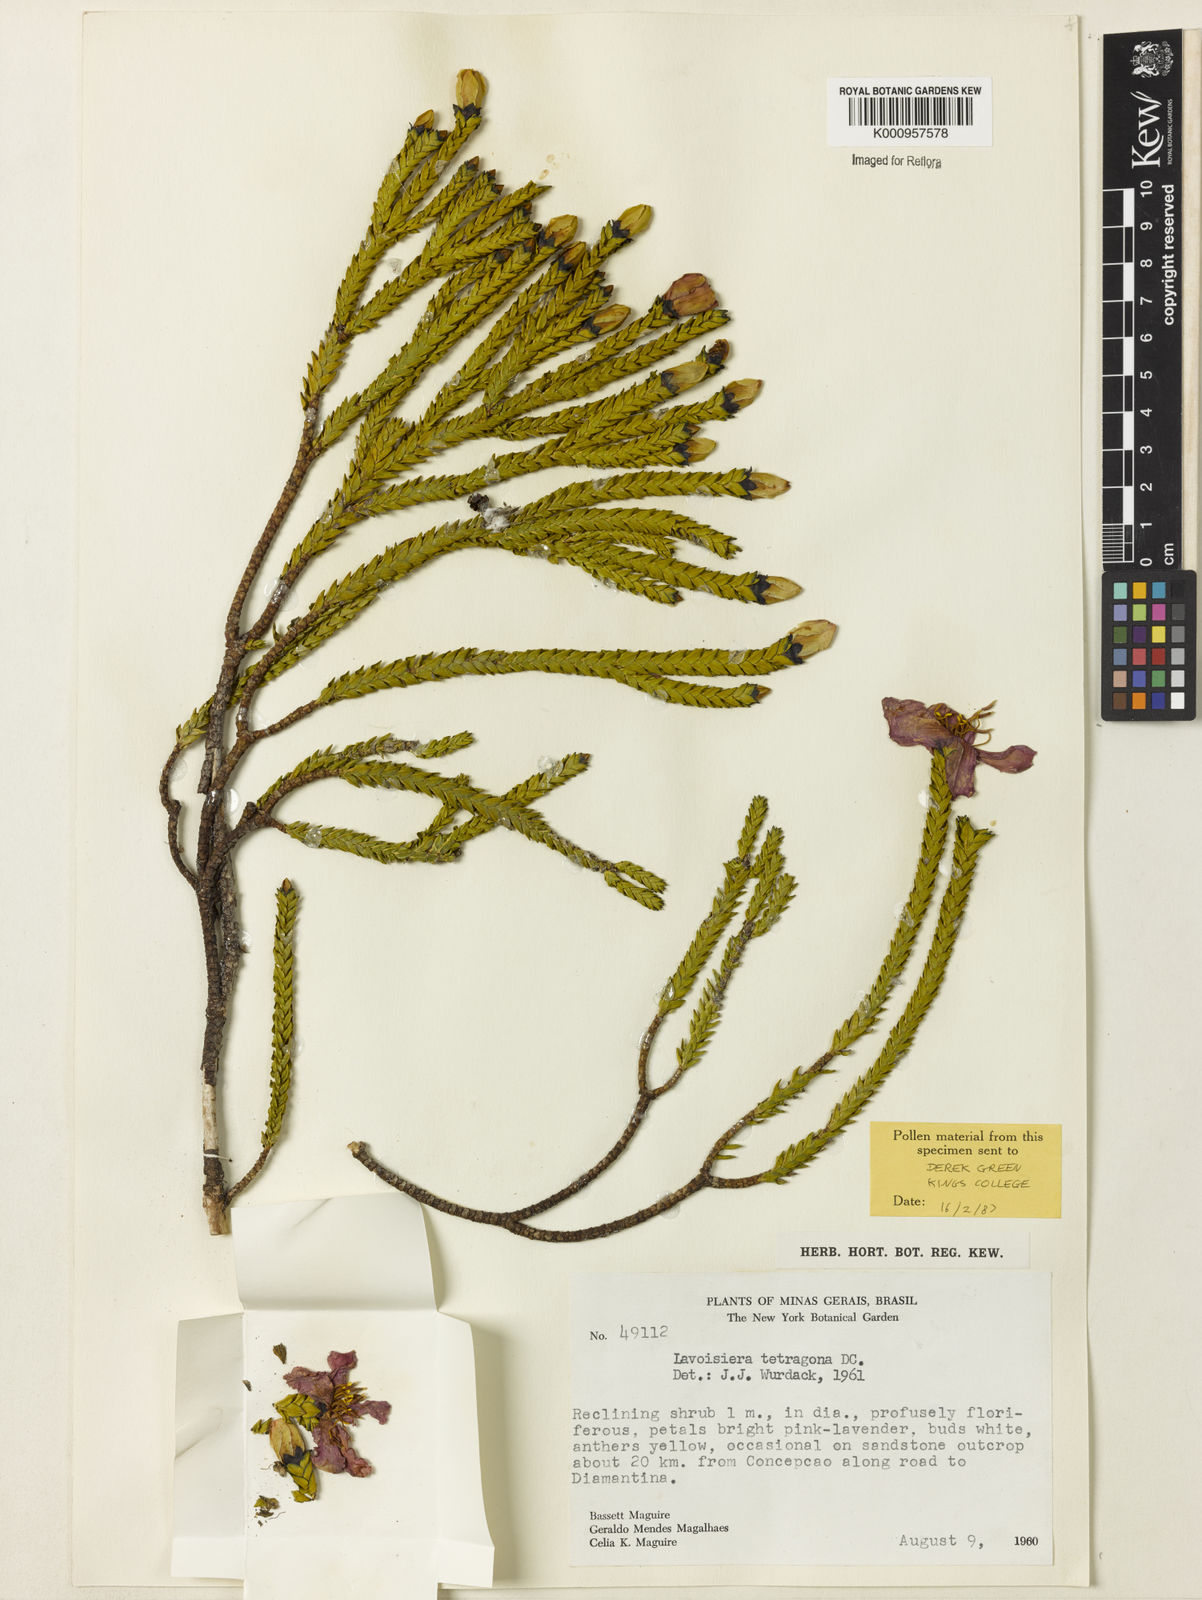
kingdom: Plantae
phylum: Tracheophyta
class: Magnoliopsida
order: Myrtales
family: Melastomataceae
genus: Microlicia
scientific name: Microlicia tetragona
